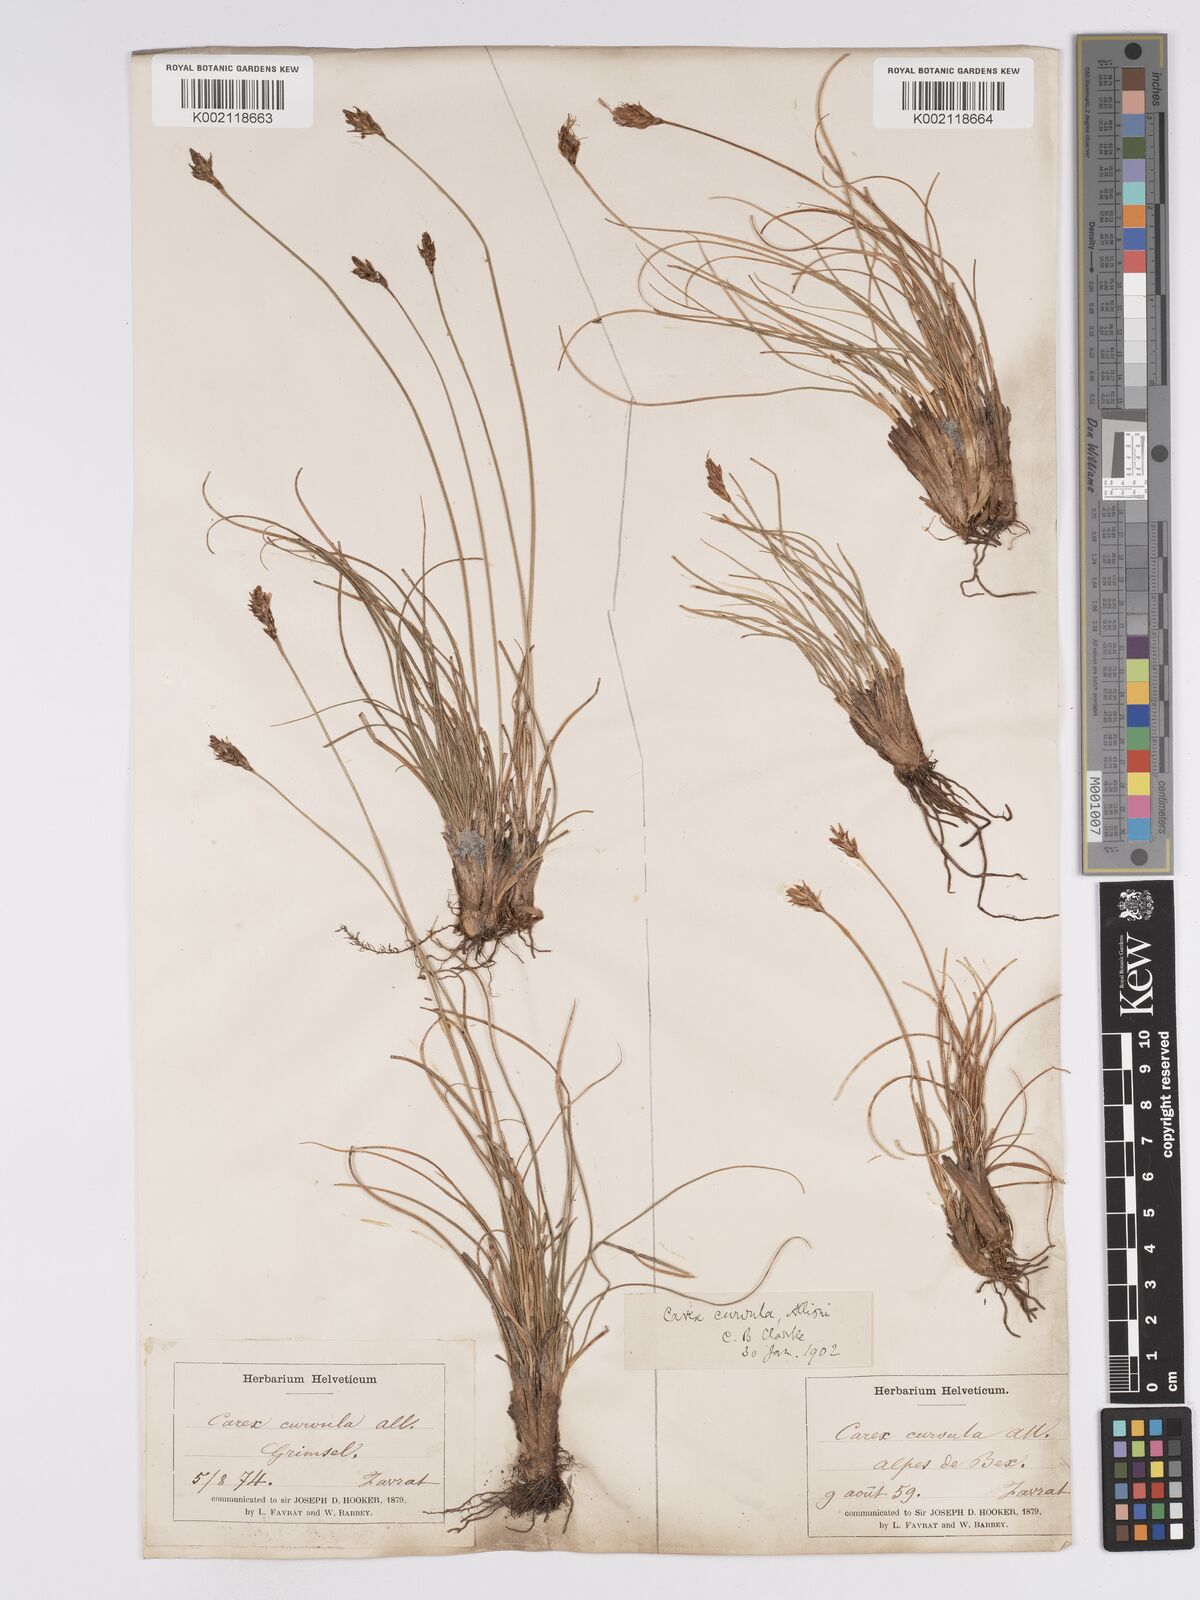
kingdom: Plantae
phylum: Tracheophyta
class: Liliopsida
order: Poales
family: Cyperaceae
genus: Carex
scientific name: Carex curvula
